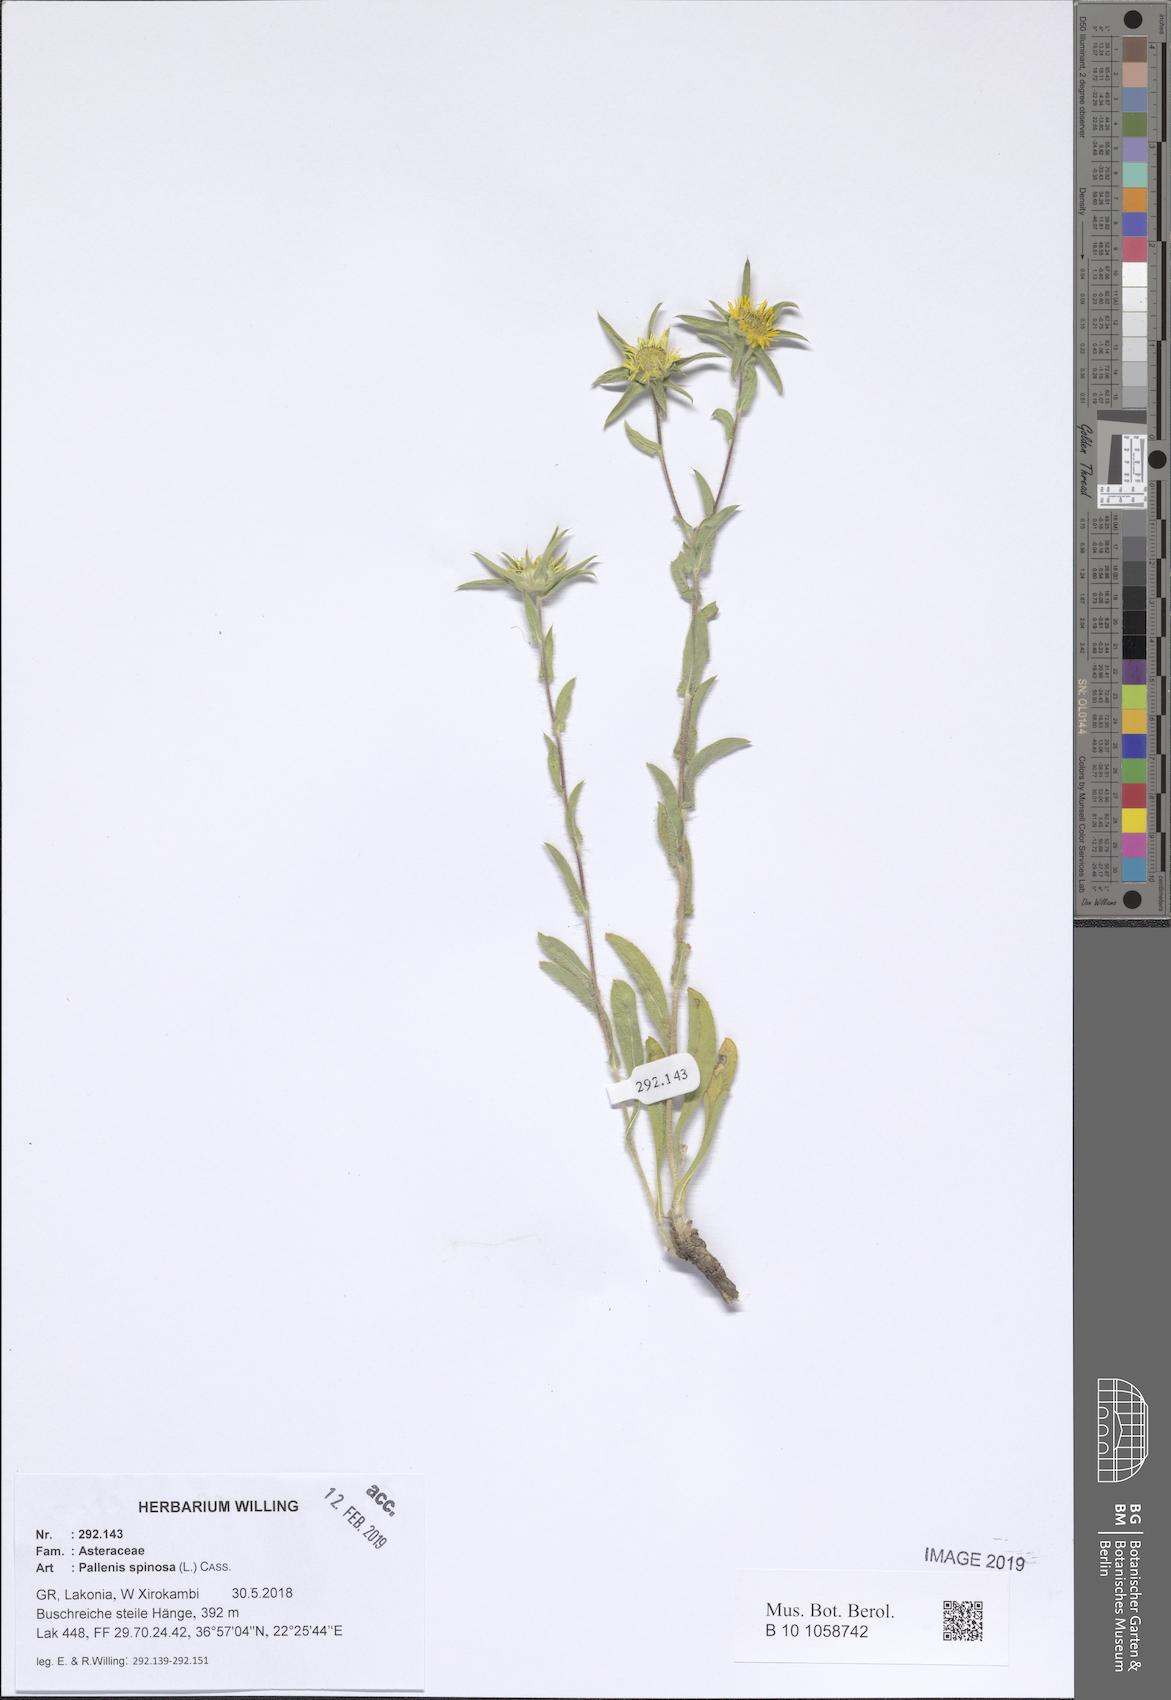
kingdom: Plantae
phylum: Tracheophyta
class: Magnoliopsida
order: Asterales
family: Asteraceae
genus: Pallenis
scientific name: Pallenis spinosa
